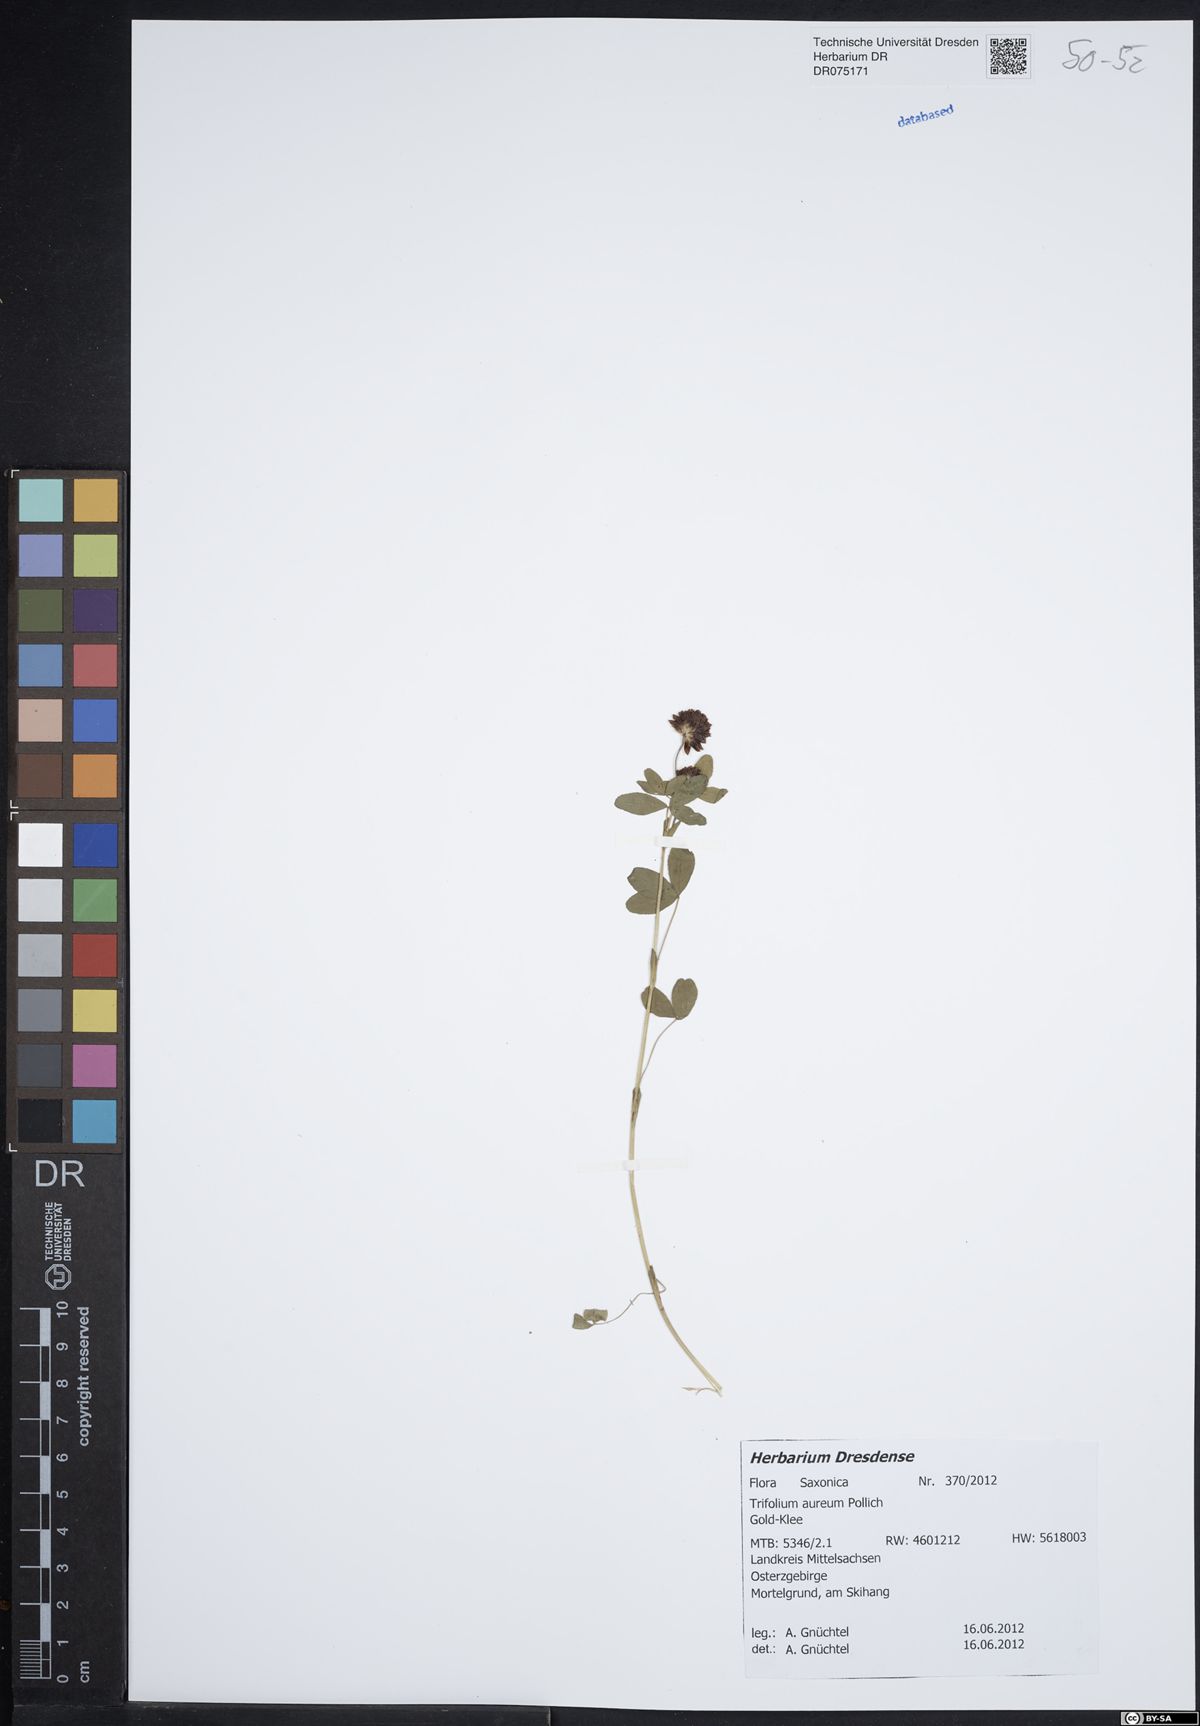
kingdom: Plantae
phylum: Tracheophyta
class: Magnoliopsida
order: Fabales
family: Fabaceae
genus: Trifolium
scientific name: Trifolium aureum
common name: Golden clover
